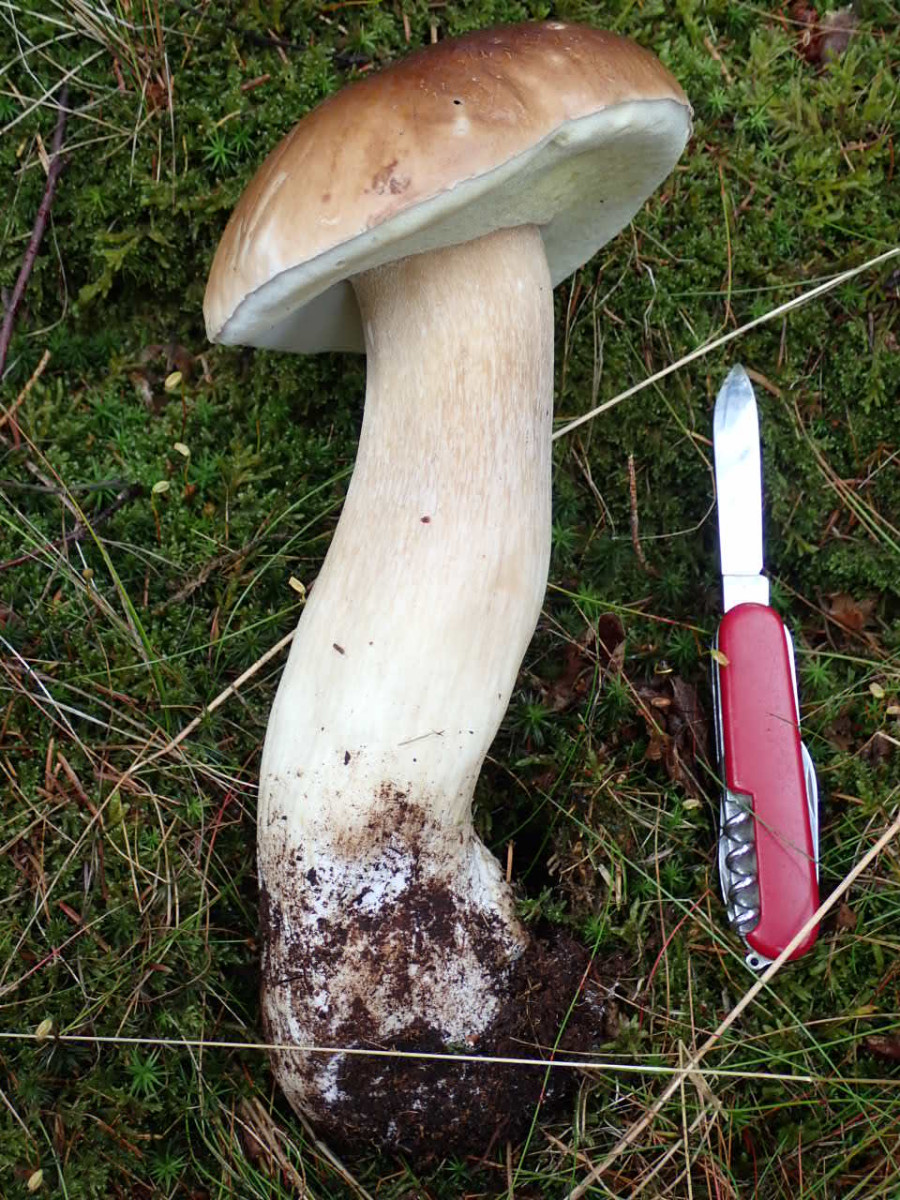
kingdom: Fungi
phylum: Basidiomycota
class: Agaricomycetes
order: Boletales
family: Boletaceae
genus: Boletus
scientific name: Boletus edulis
